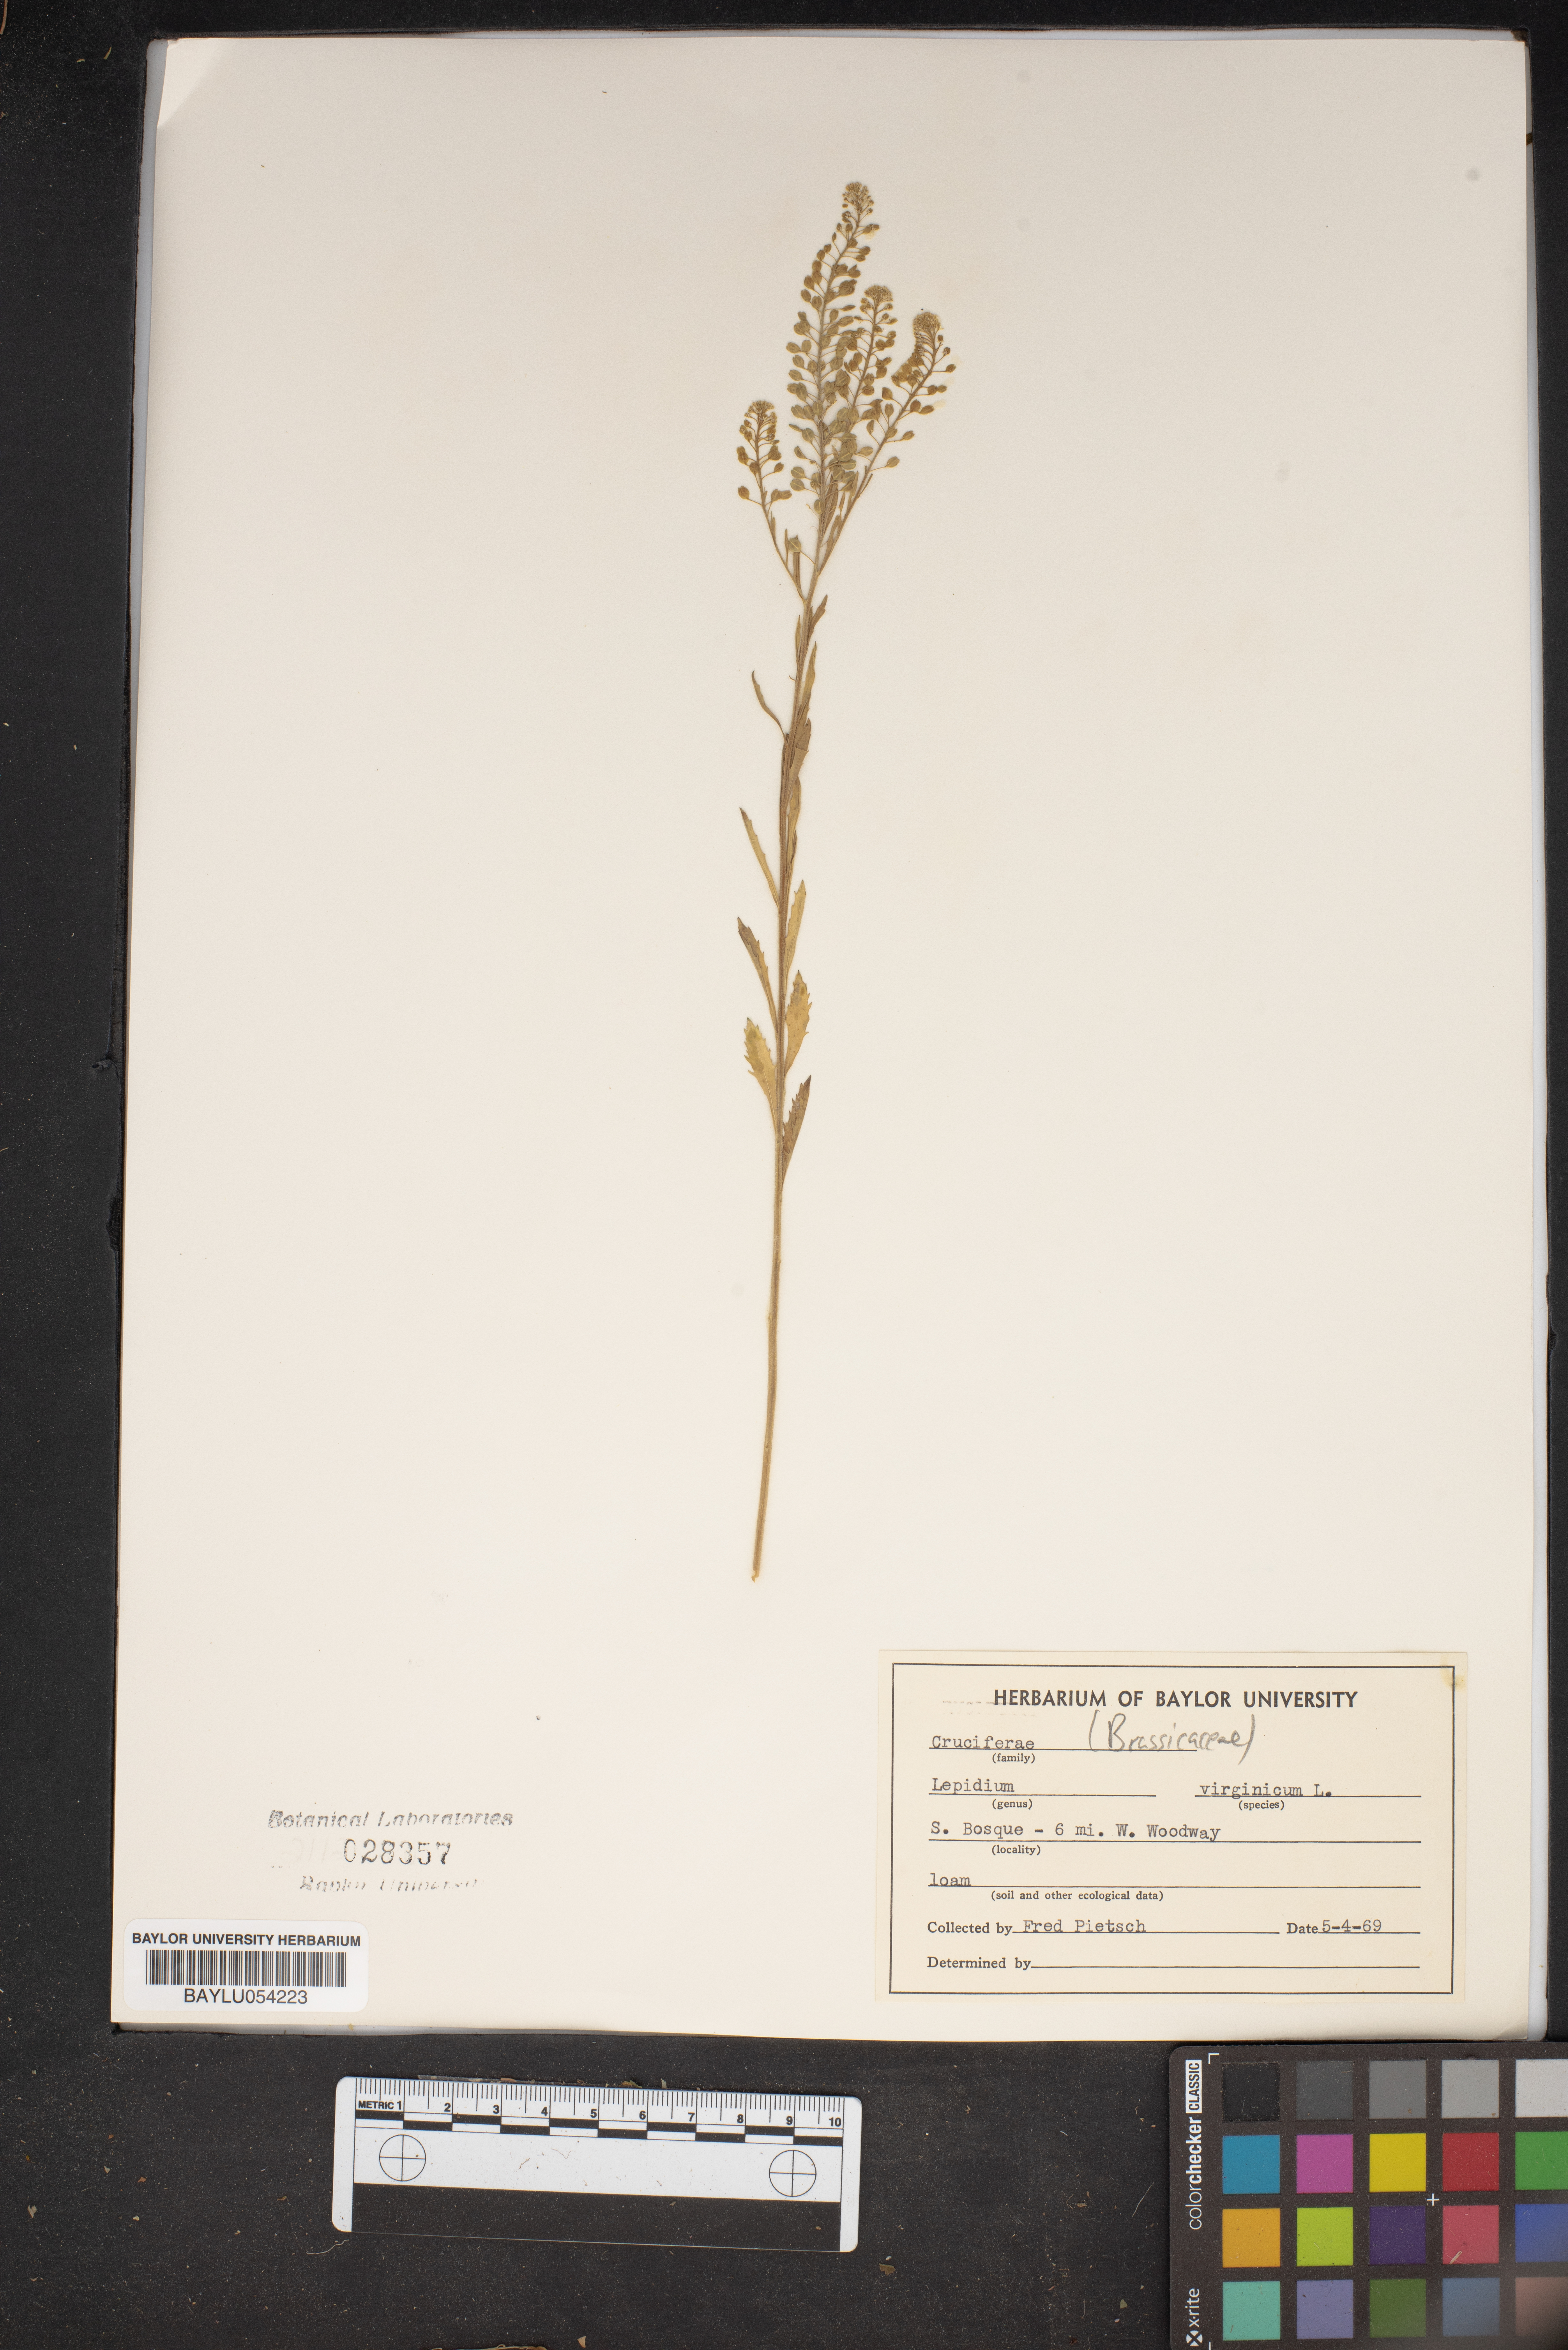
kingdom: Plantae
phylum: Tracheophyta
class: Magnoliopsida
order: Brassicales
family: Brassicaceae
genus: Lepidium
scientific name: Lepidium virginicum
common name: Least pepperwort
